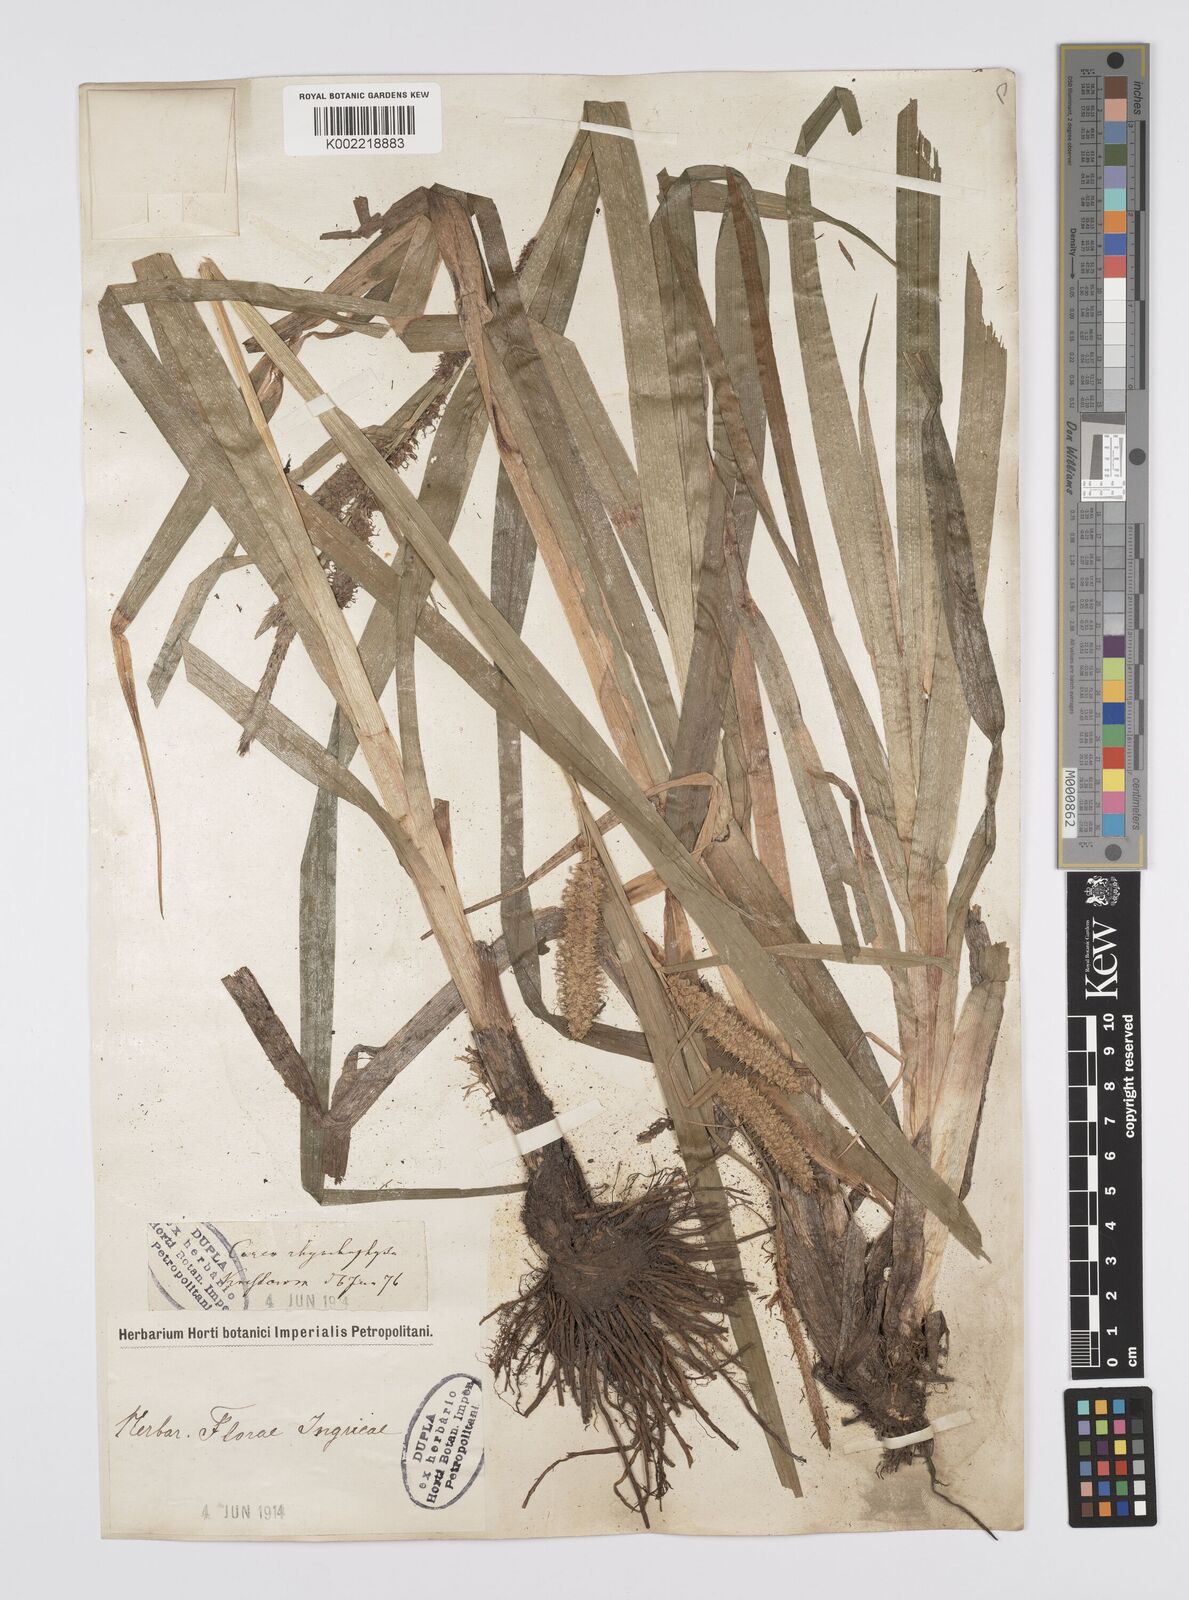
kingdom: Plantae
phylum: Tracheophyta
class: Liliopsida
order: Poales
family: Cyperaceae
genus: Carex
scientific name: Carex utriculata
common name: Beaked sedge
